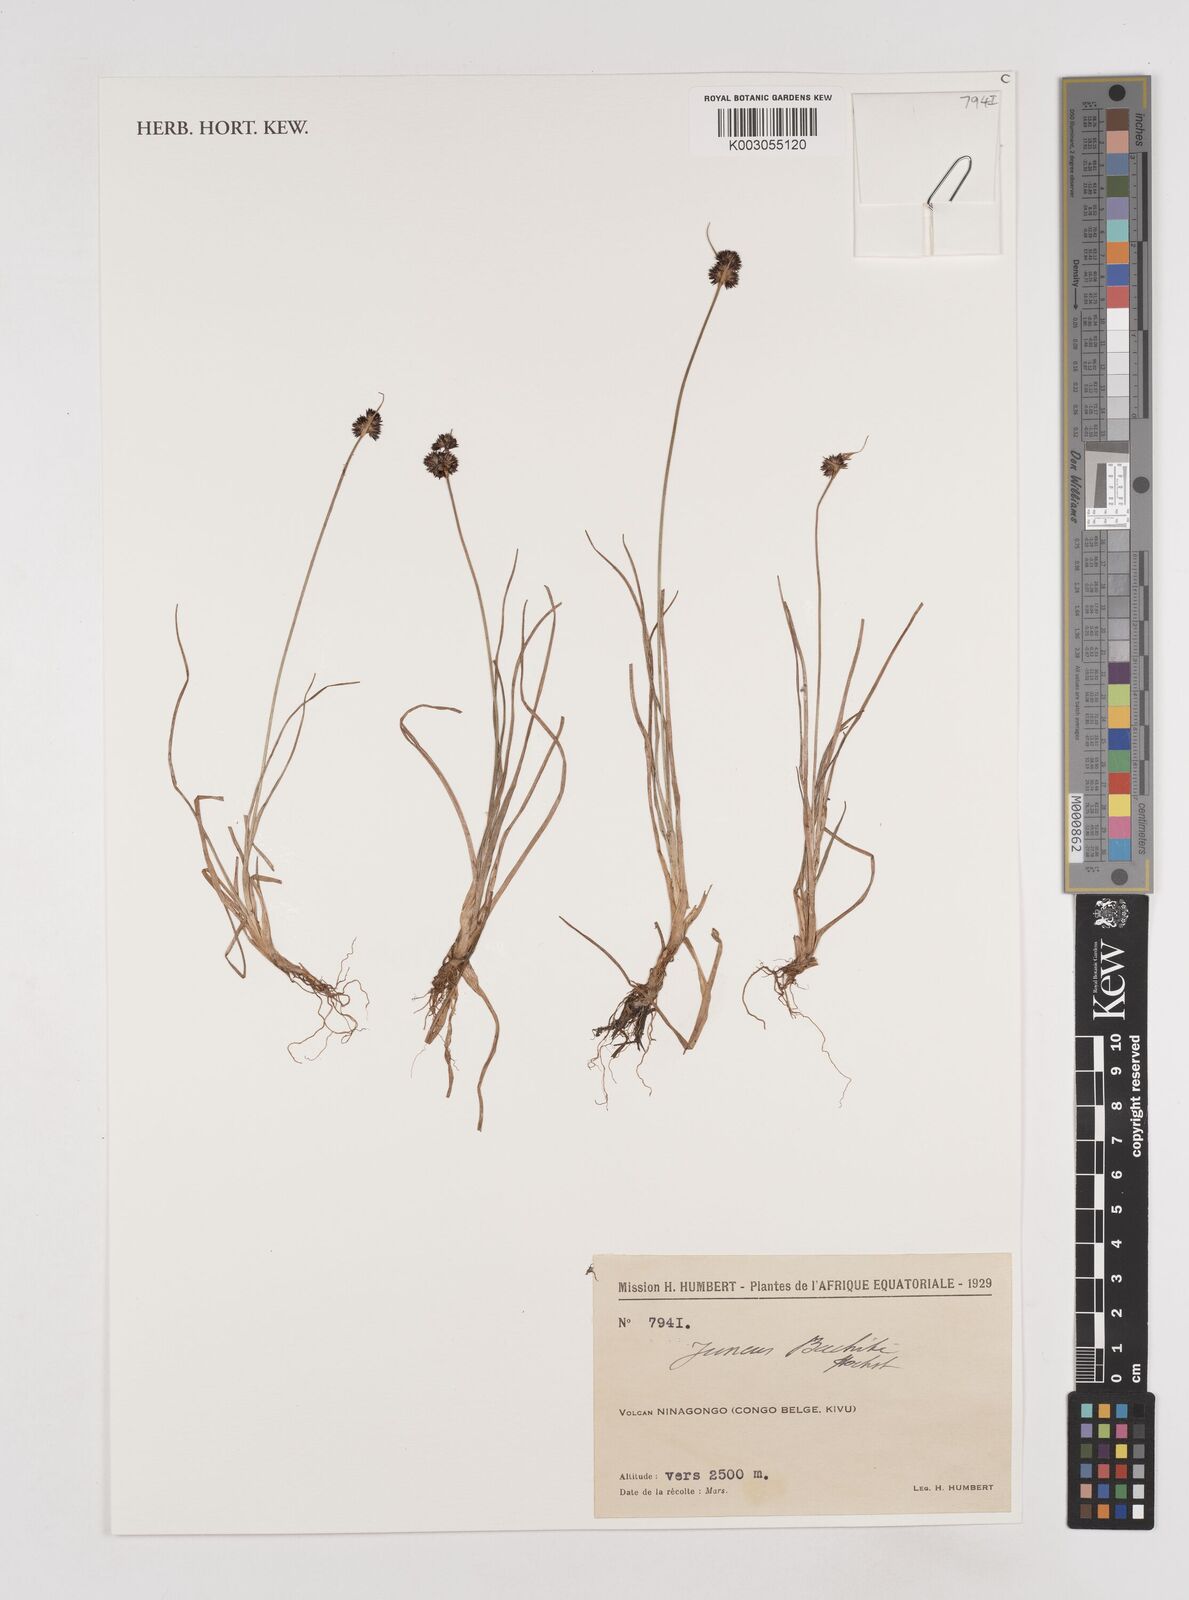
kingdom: Plantae
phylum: Tracheophyta
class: Liliopsida
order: Poales
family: Juncaceae
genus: Juncus
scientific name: Juncus dregeanus
